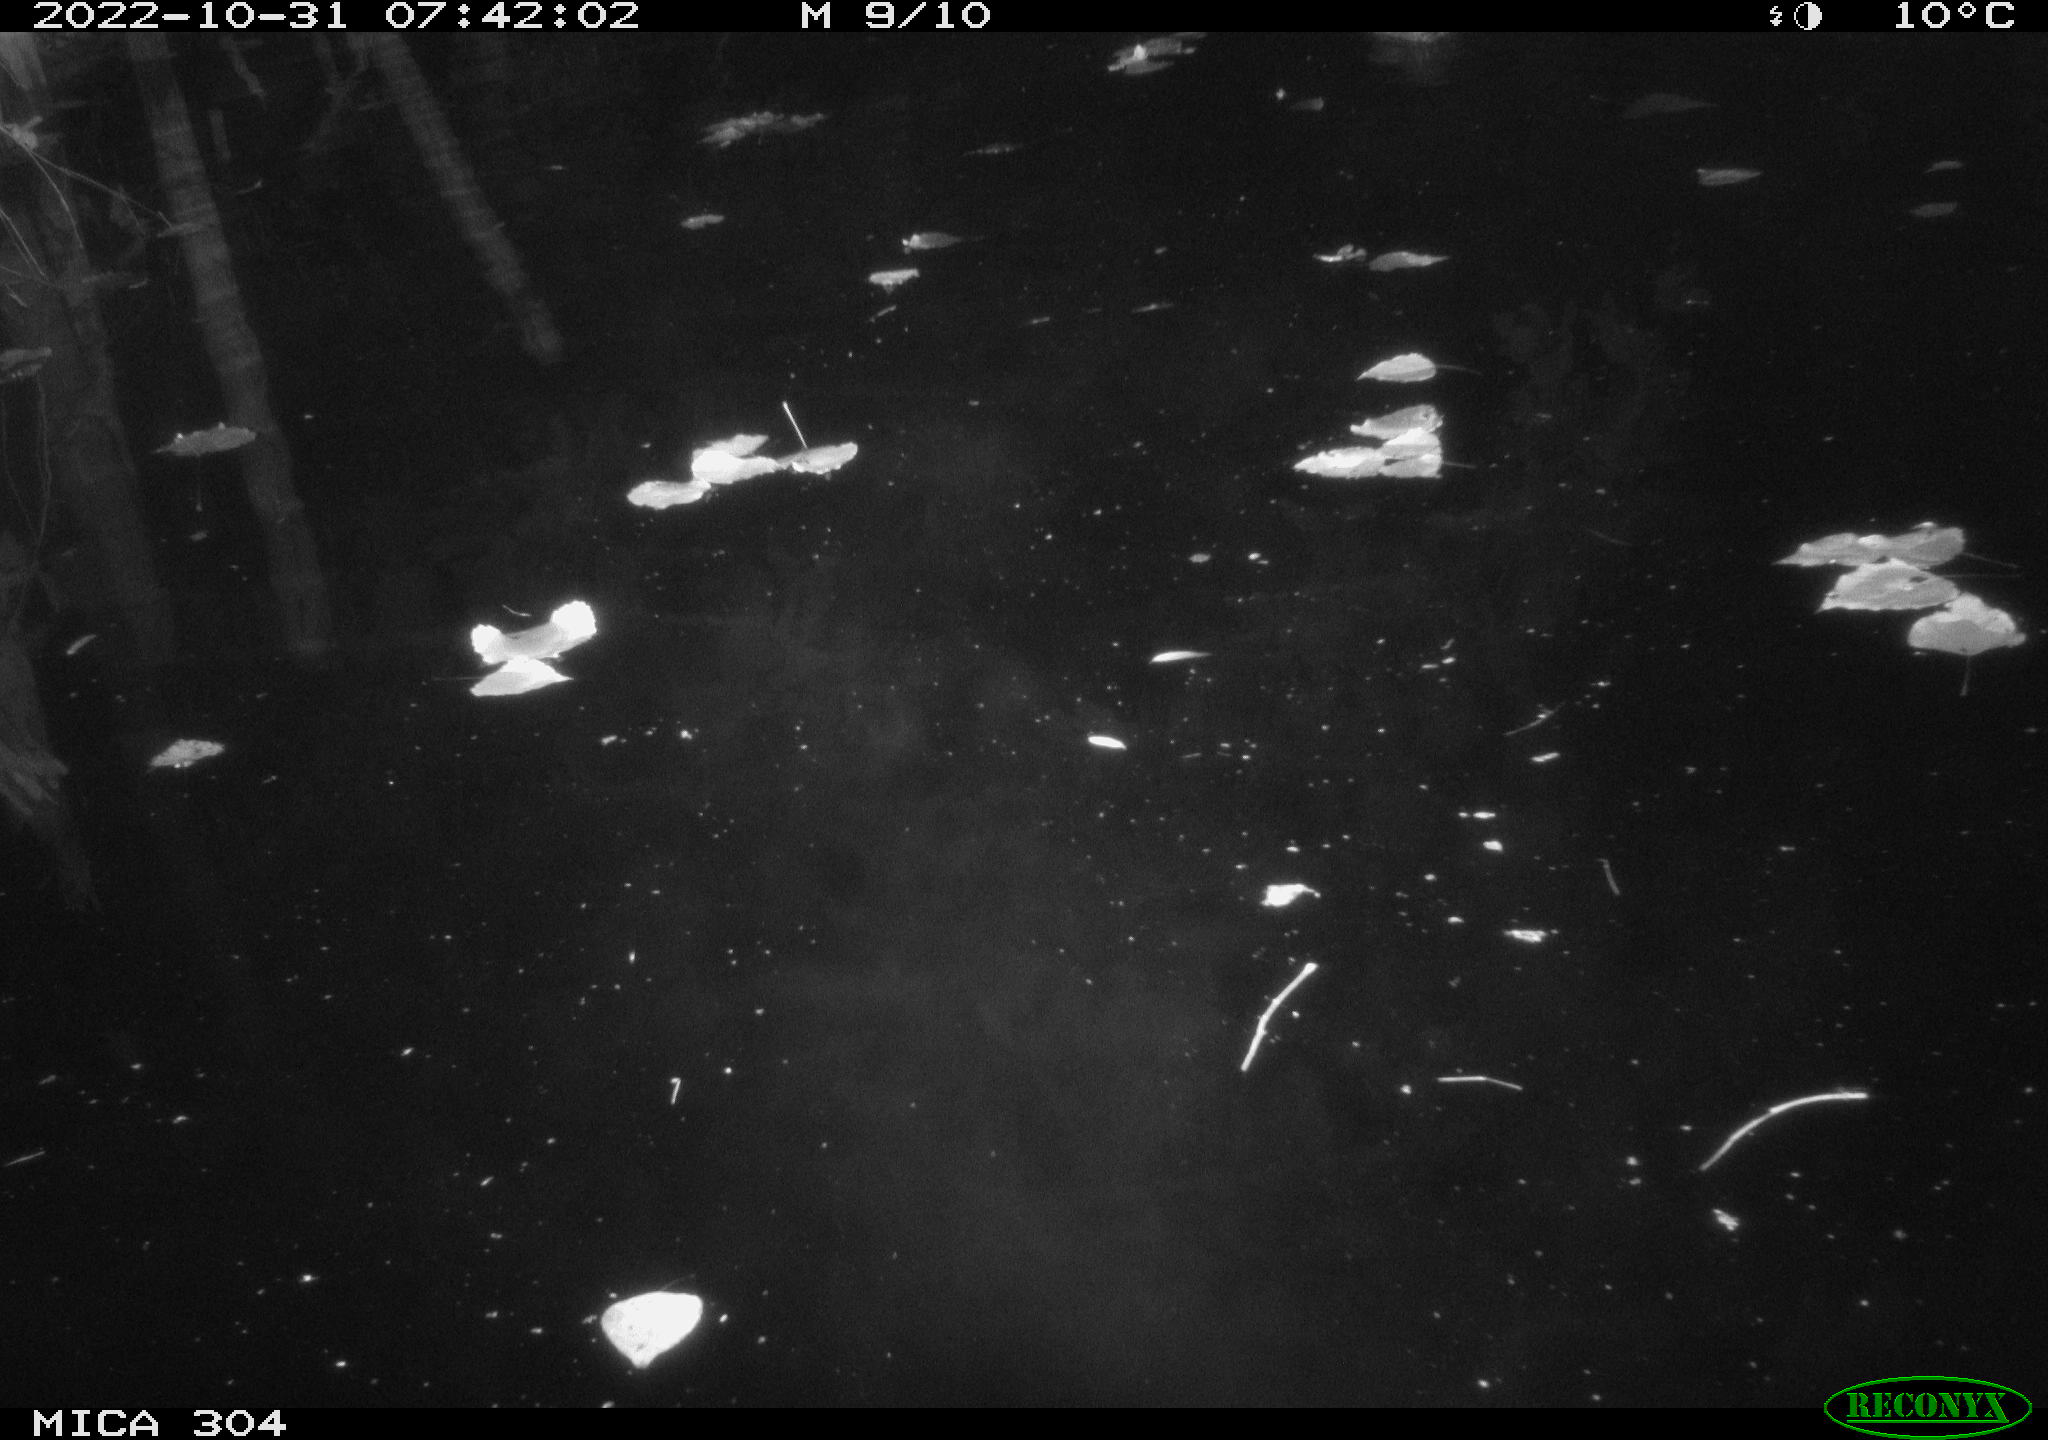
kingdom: Animalia
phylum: Chordata
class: Aves
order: Anseriformes
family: Anatidae
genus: Anas
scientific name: Anas
